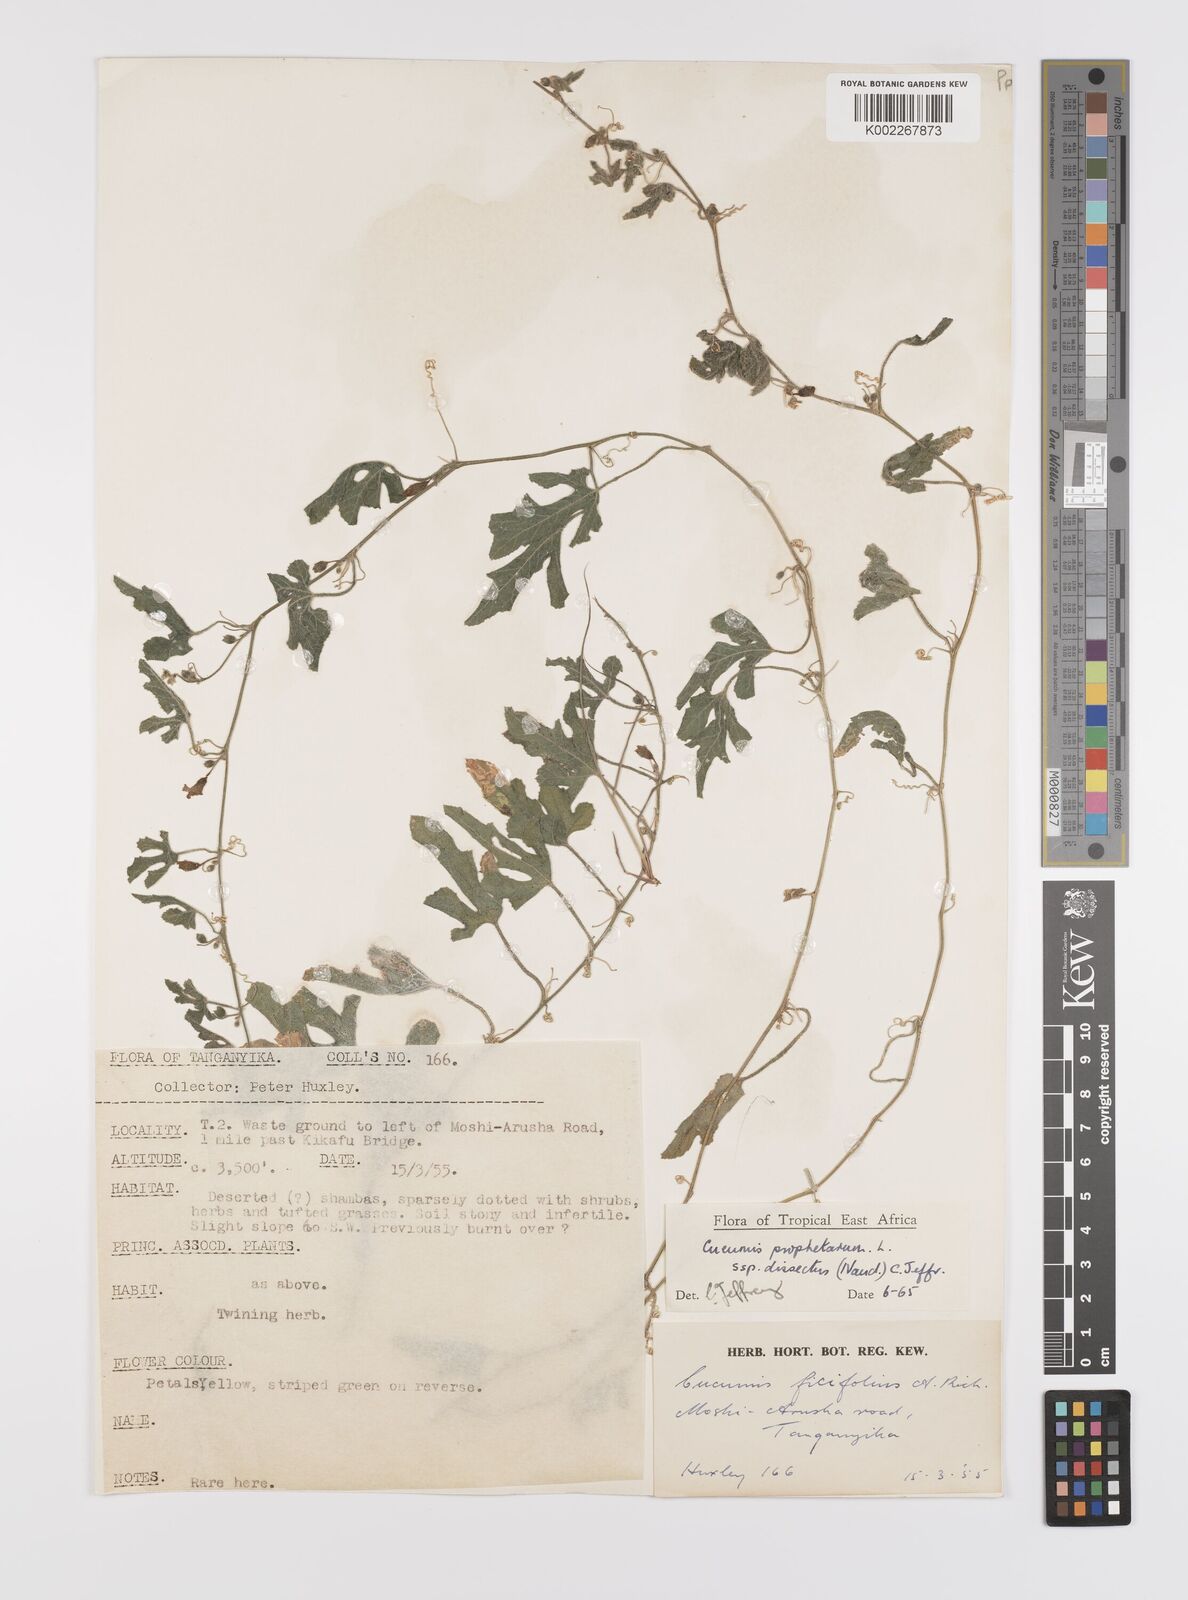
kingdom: Plantae
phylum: Tracheophyta
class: Magnoliopsida
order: Cucurbitales
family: Cucurbitaceae
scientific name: Cucurbitaceae
